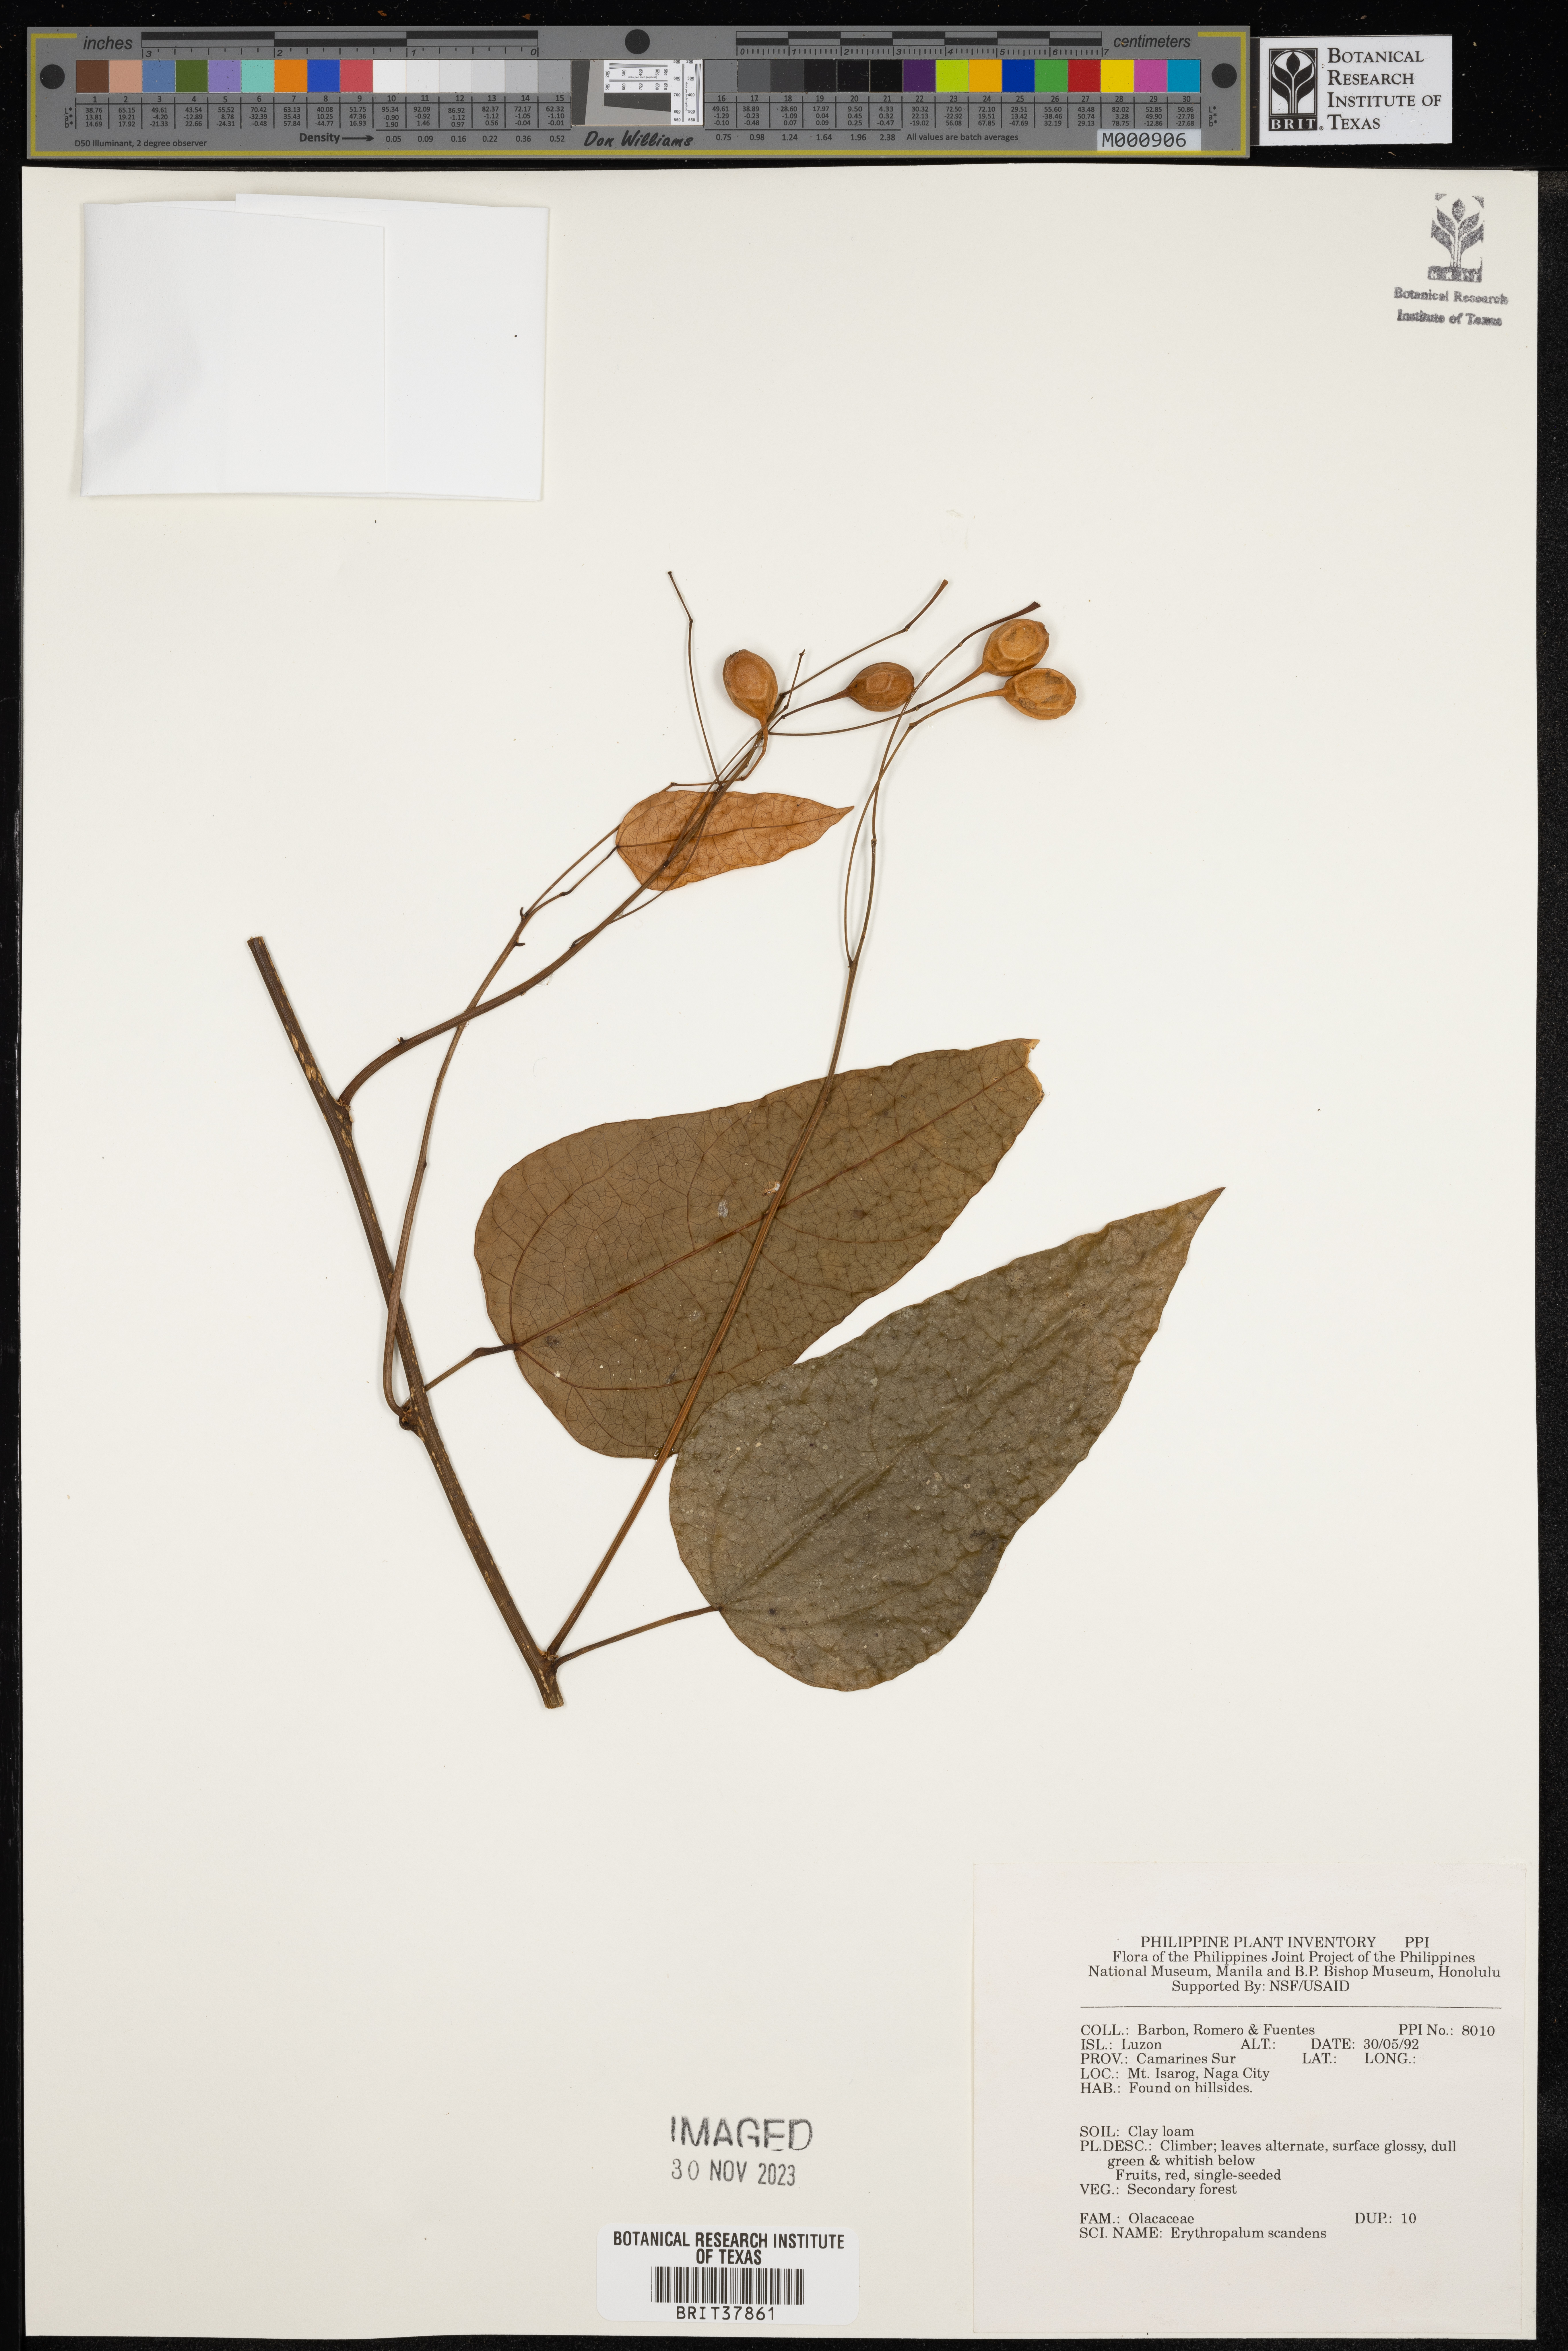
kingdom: Plantae
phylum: Tracheophyta
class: Magnoliopsida
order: Santalales
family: Erythropalaceae
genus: Erythropalum
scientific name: Erythropalum scandens
